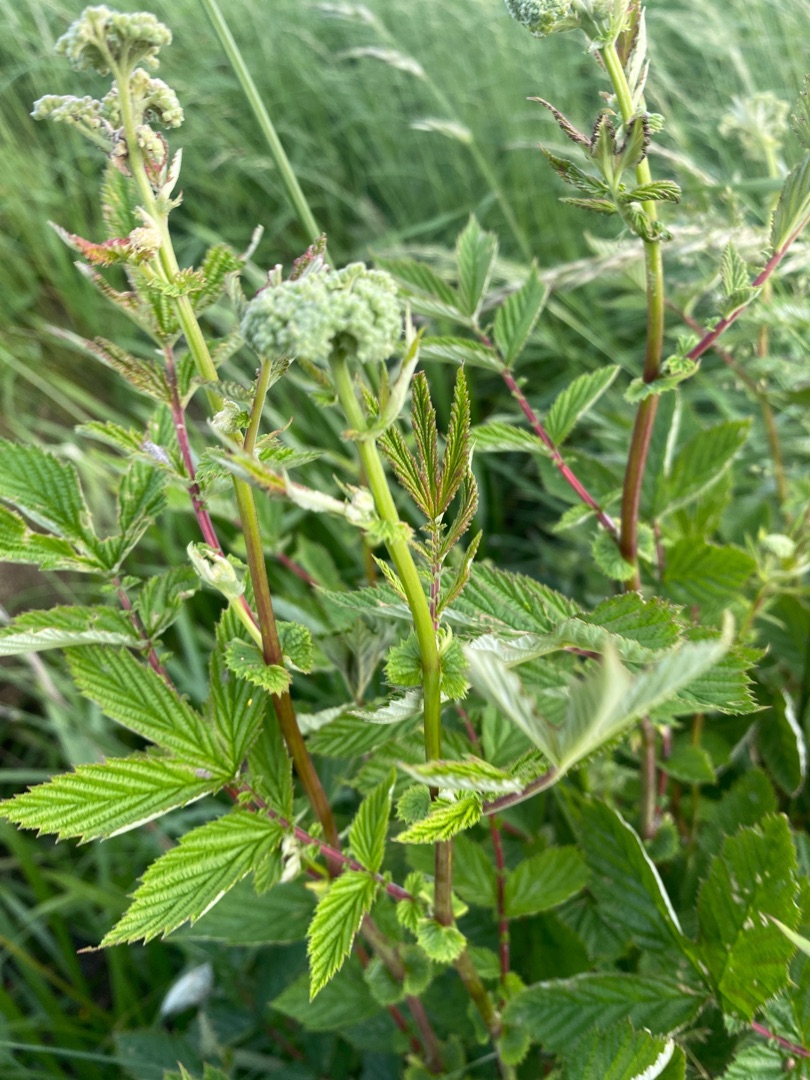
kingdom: Plantae
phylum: Tracheophyta
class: Magnoliopsida
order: Rosales
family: Rosaceae
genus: Filipendula
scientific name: Filipendula ulmaria
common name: Almindelig mjødurt
